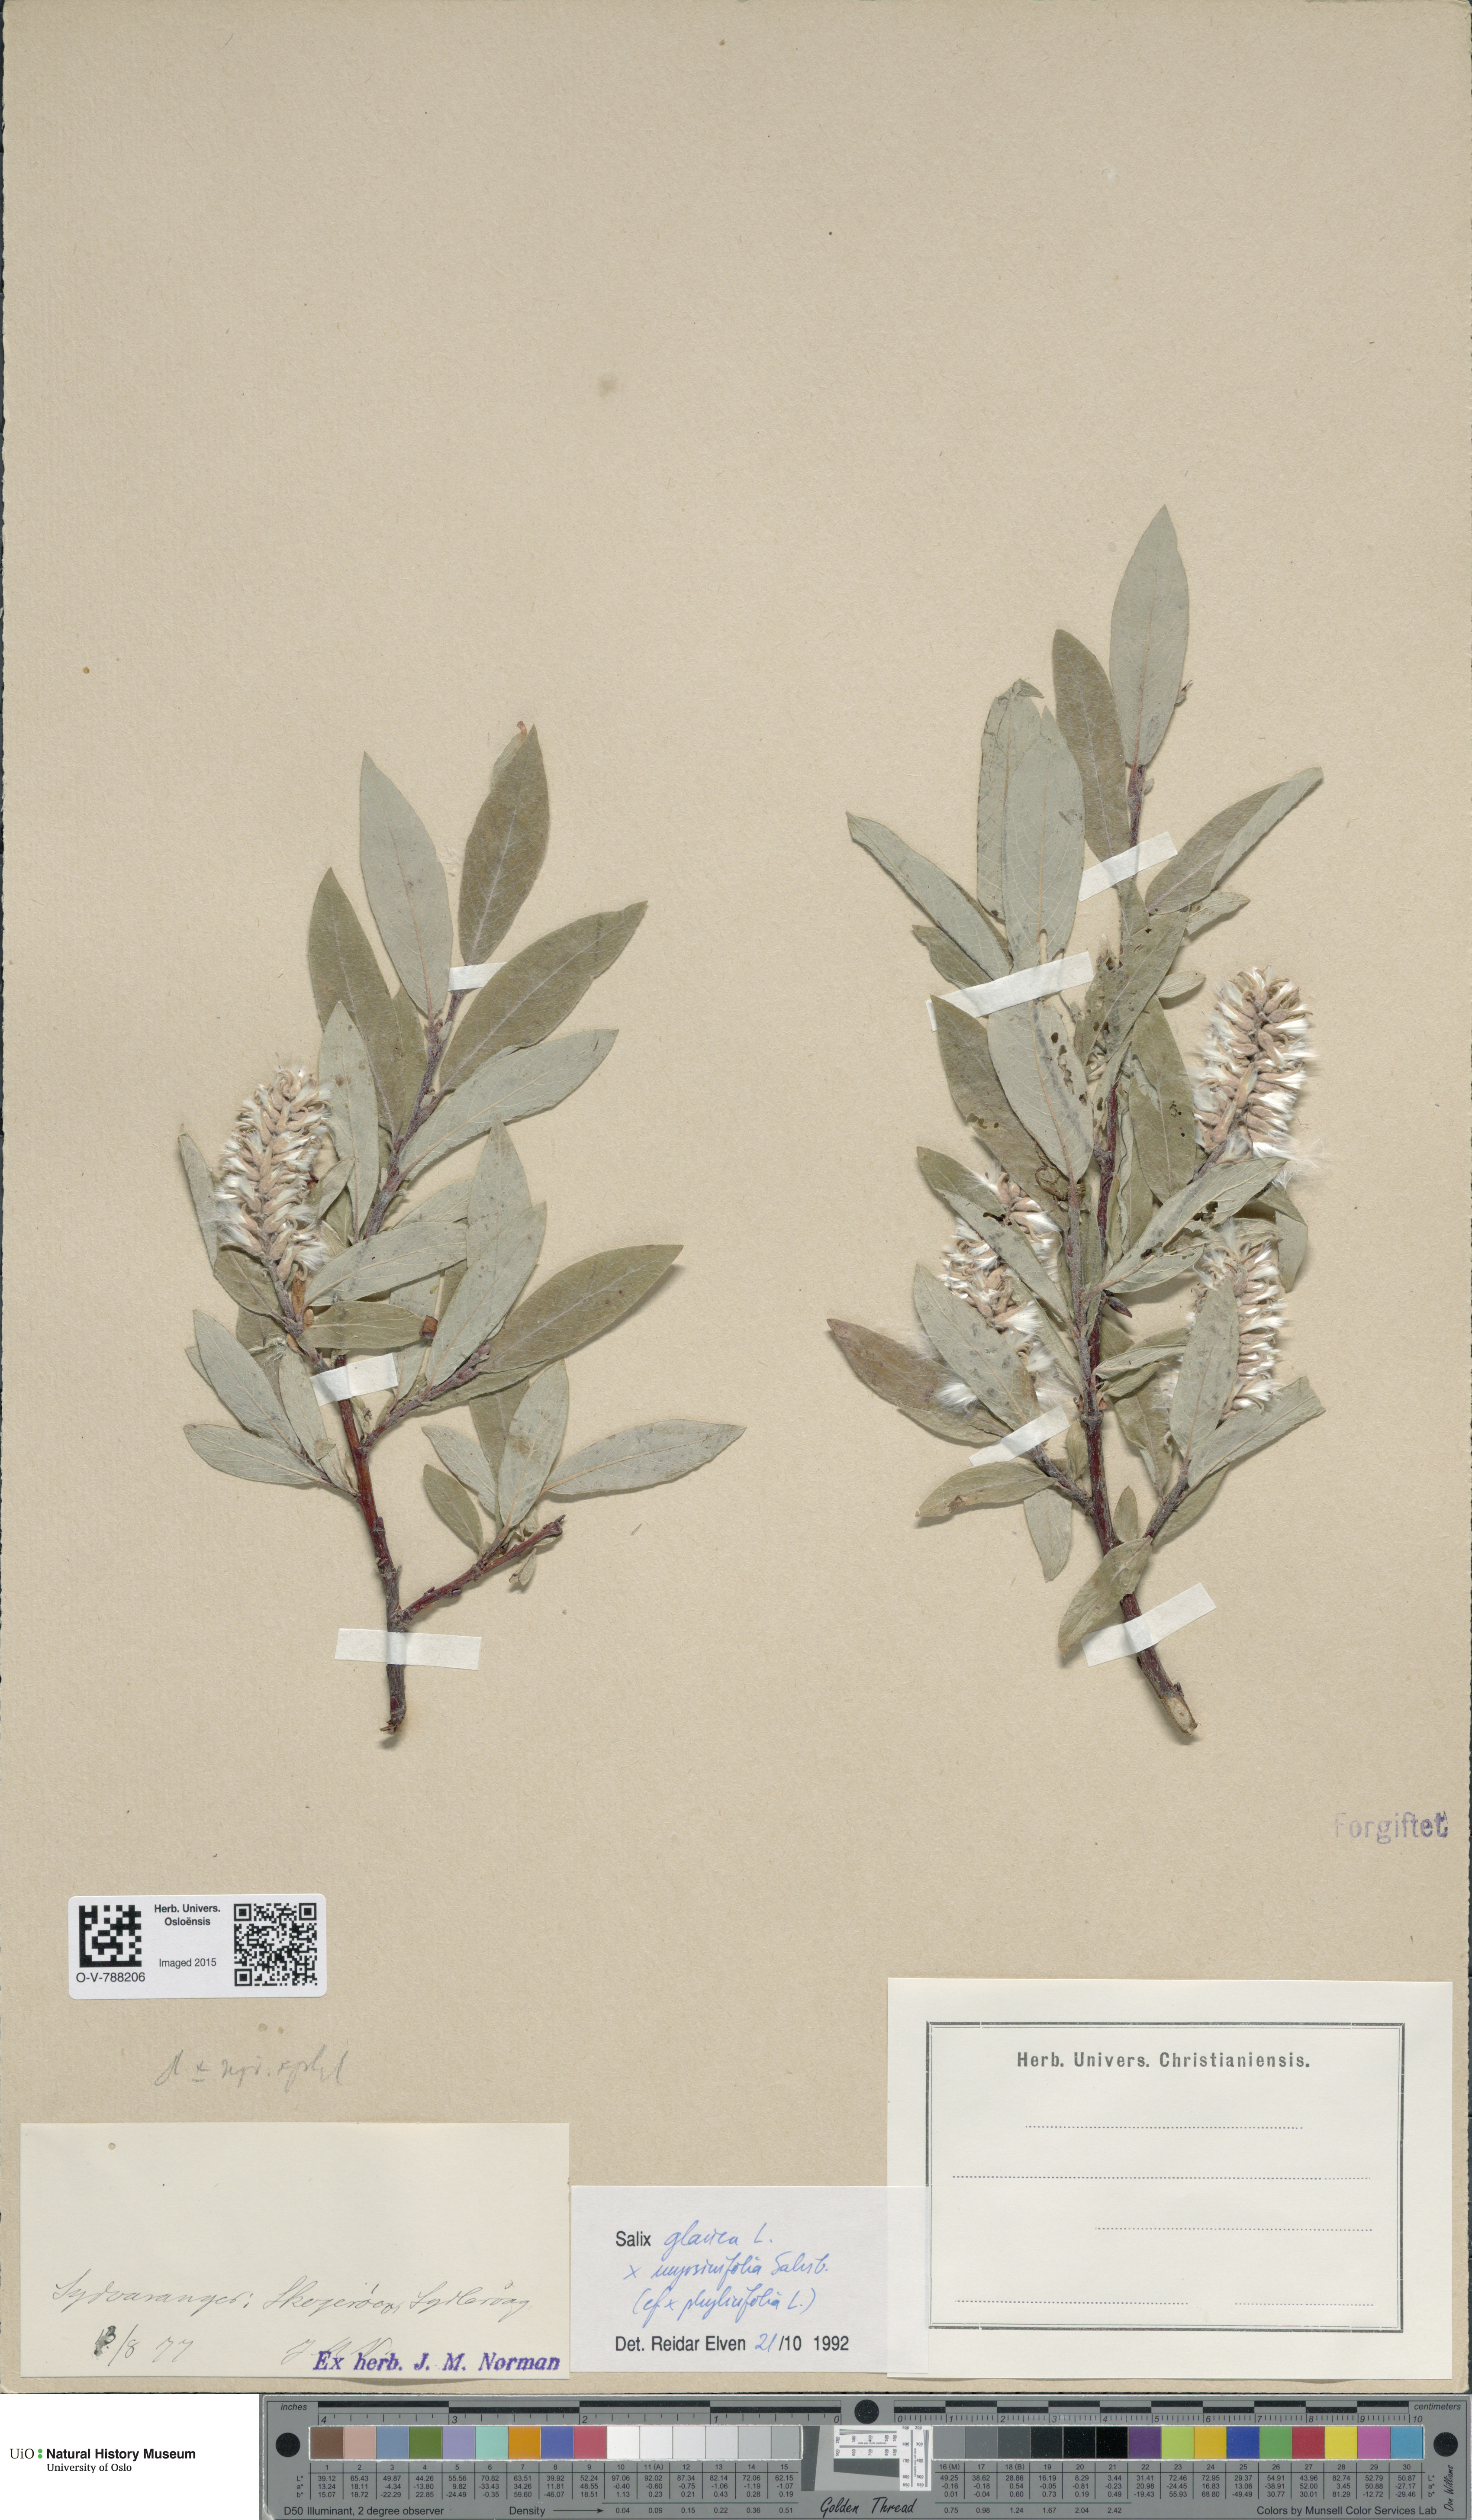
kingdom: Plantae
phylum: Tracheophyta
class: Magnoliopsida
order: Malpighiales
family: Salicaceae
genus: Salix
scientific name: Salix
